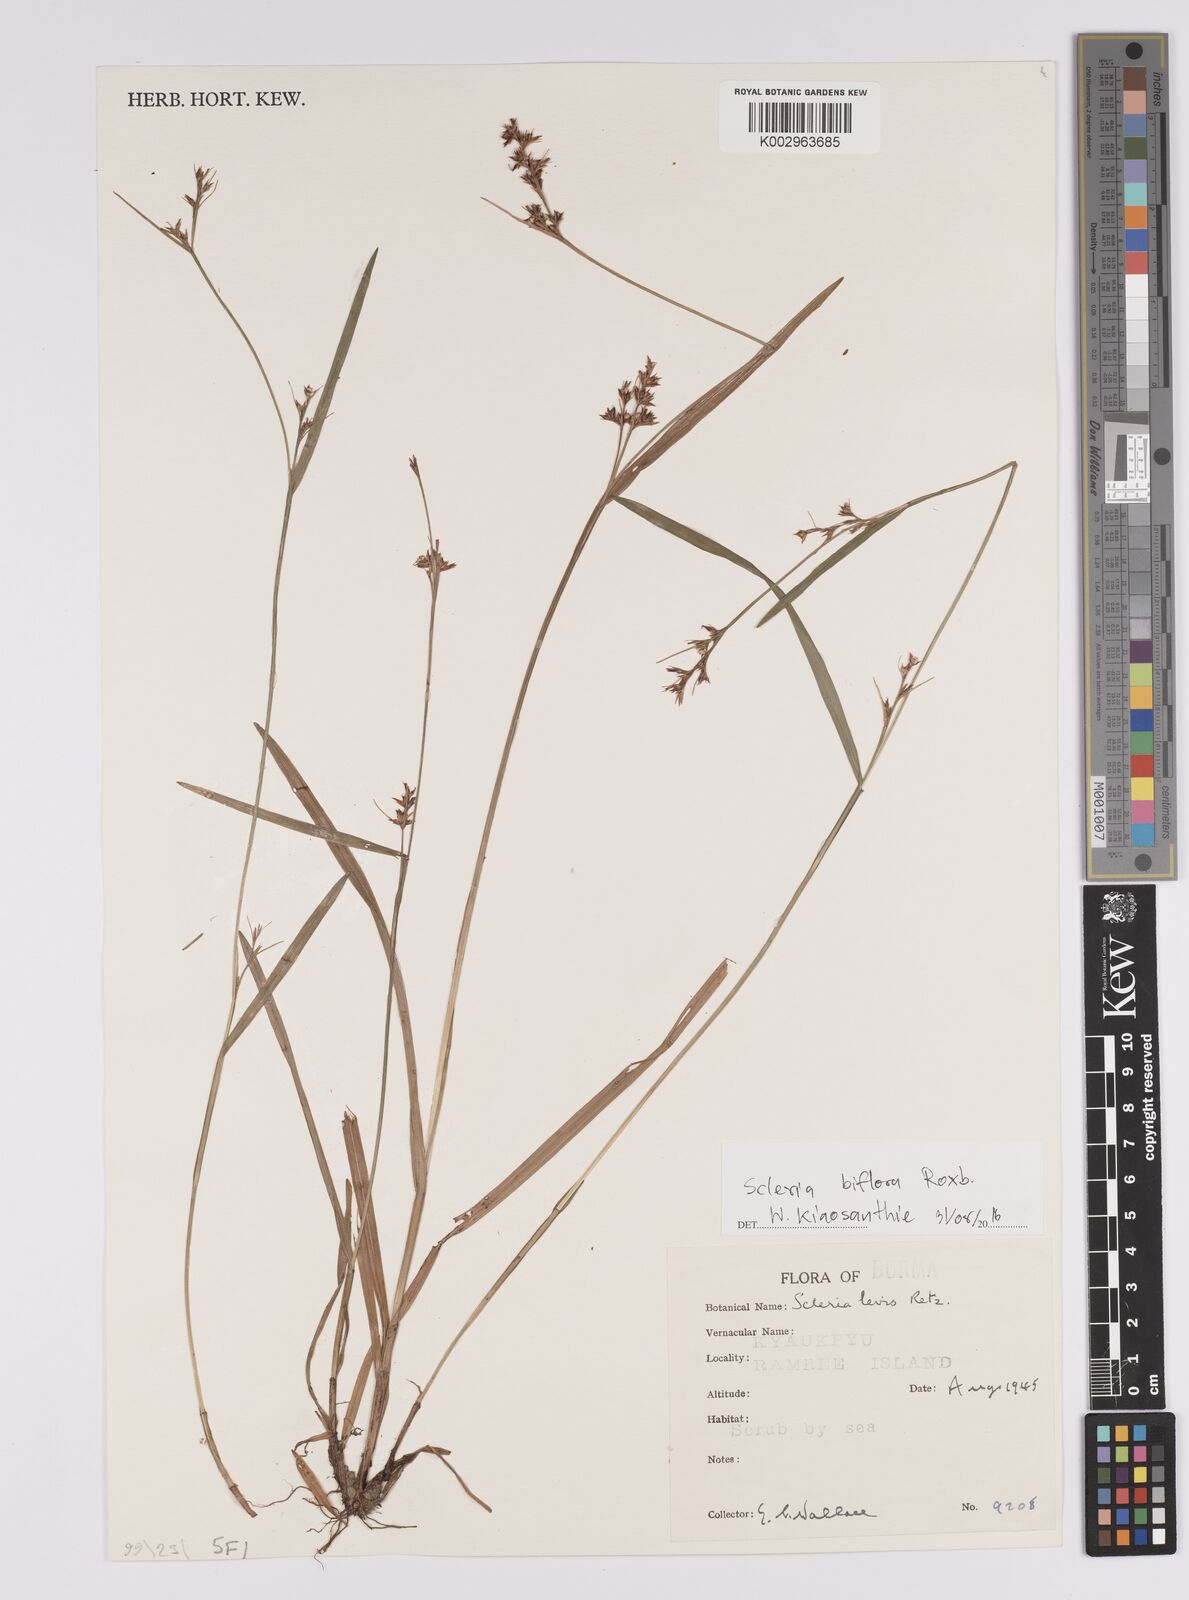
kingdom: Plantae
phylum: Tracheophyta
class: Liliopsida
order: Poales
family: Cyperaceae
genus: Scleria
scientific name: Scleria biflora
